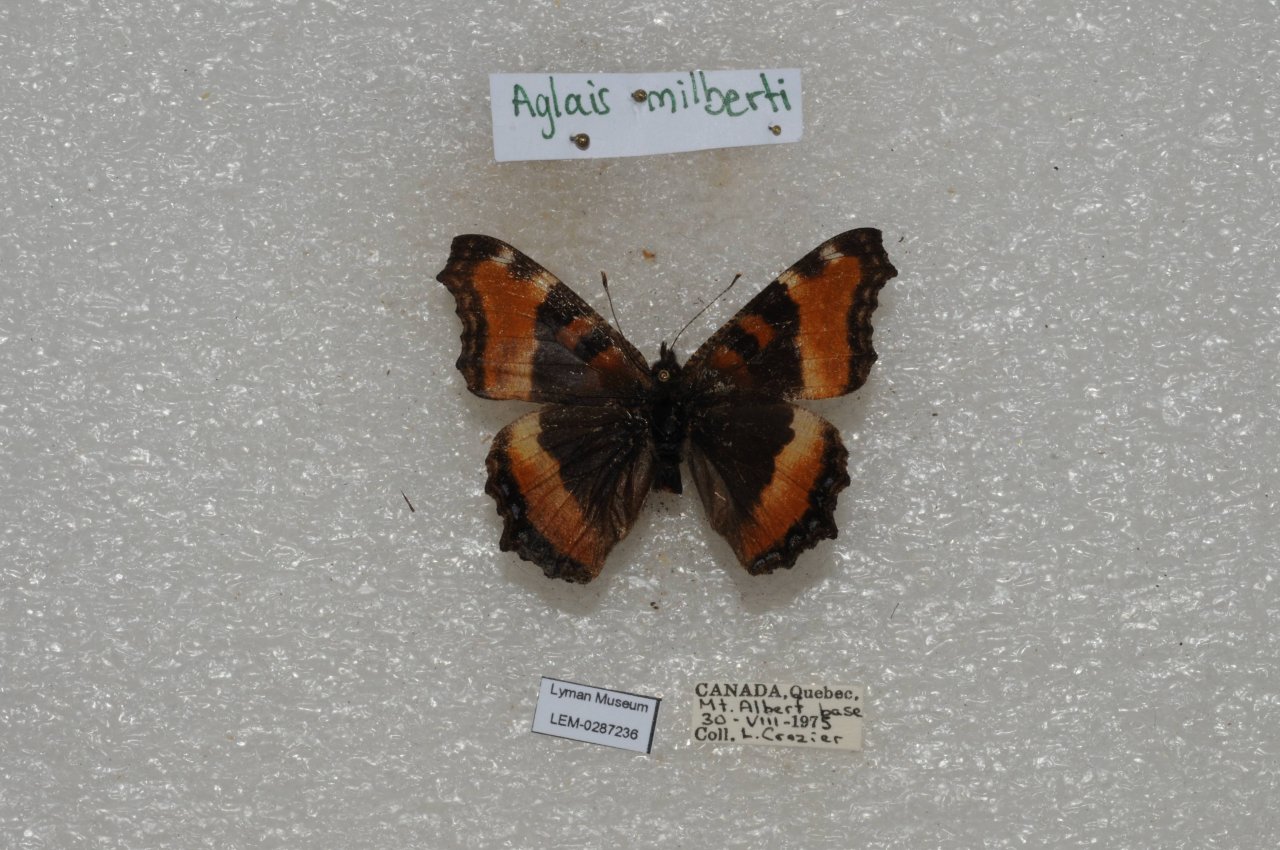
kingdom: Animalia
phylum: Arthropoda
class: Insecta
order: Lepidoptera
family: Nymphalidae
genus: Aglais
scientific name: Aglais milberti
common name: Milbert's Tortoiseshell
